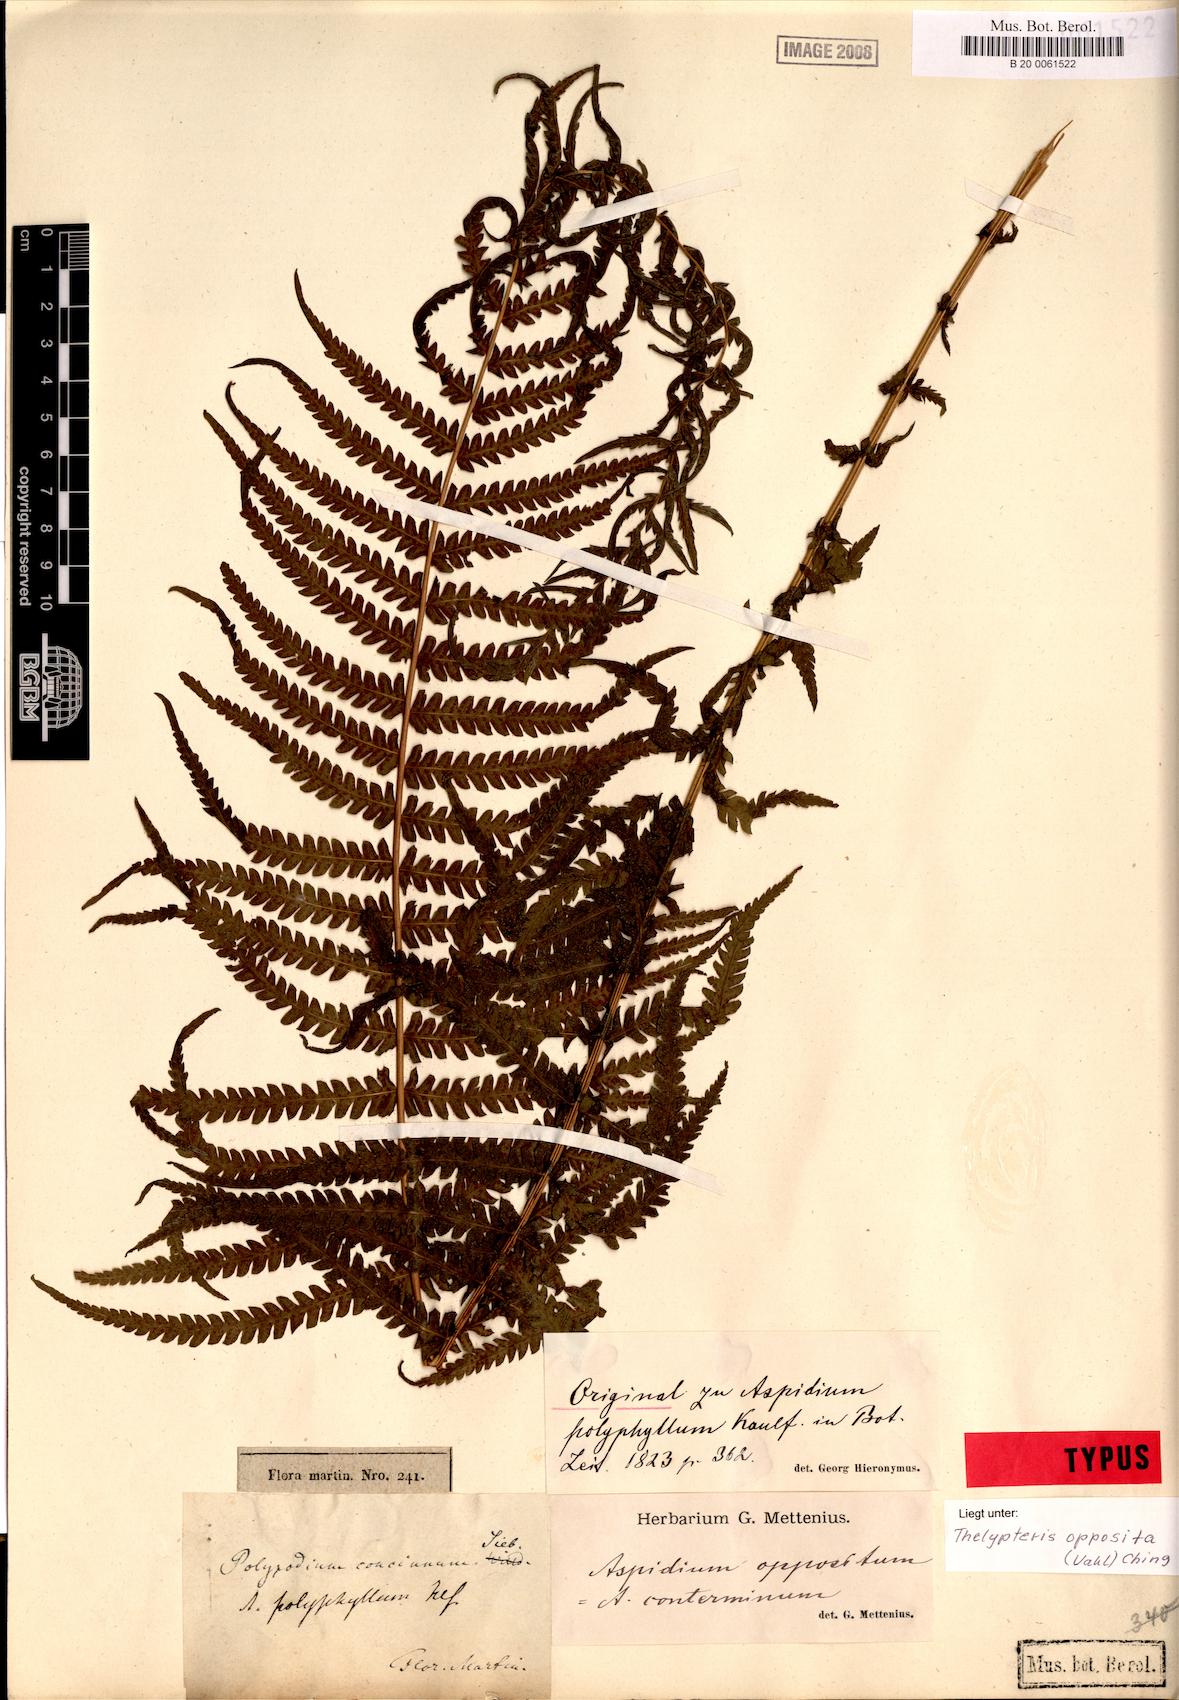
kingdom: Plantae
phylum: Tracheophyta
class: Polypodiopsida
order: Polypodiales
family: Thelypteridaceae
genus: Amauropelta
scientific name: Amauropelta opposita
